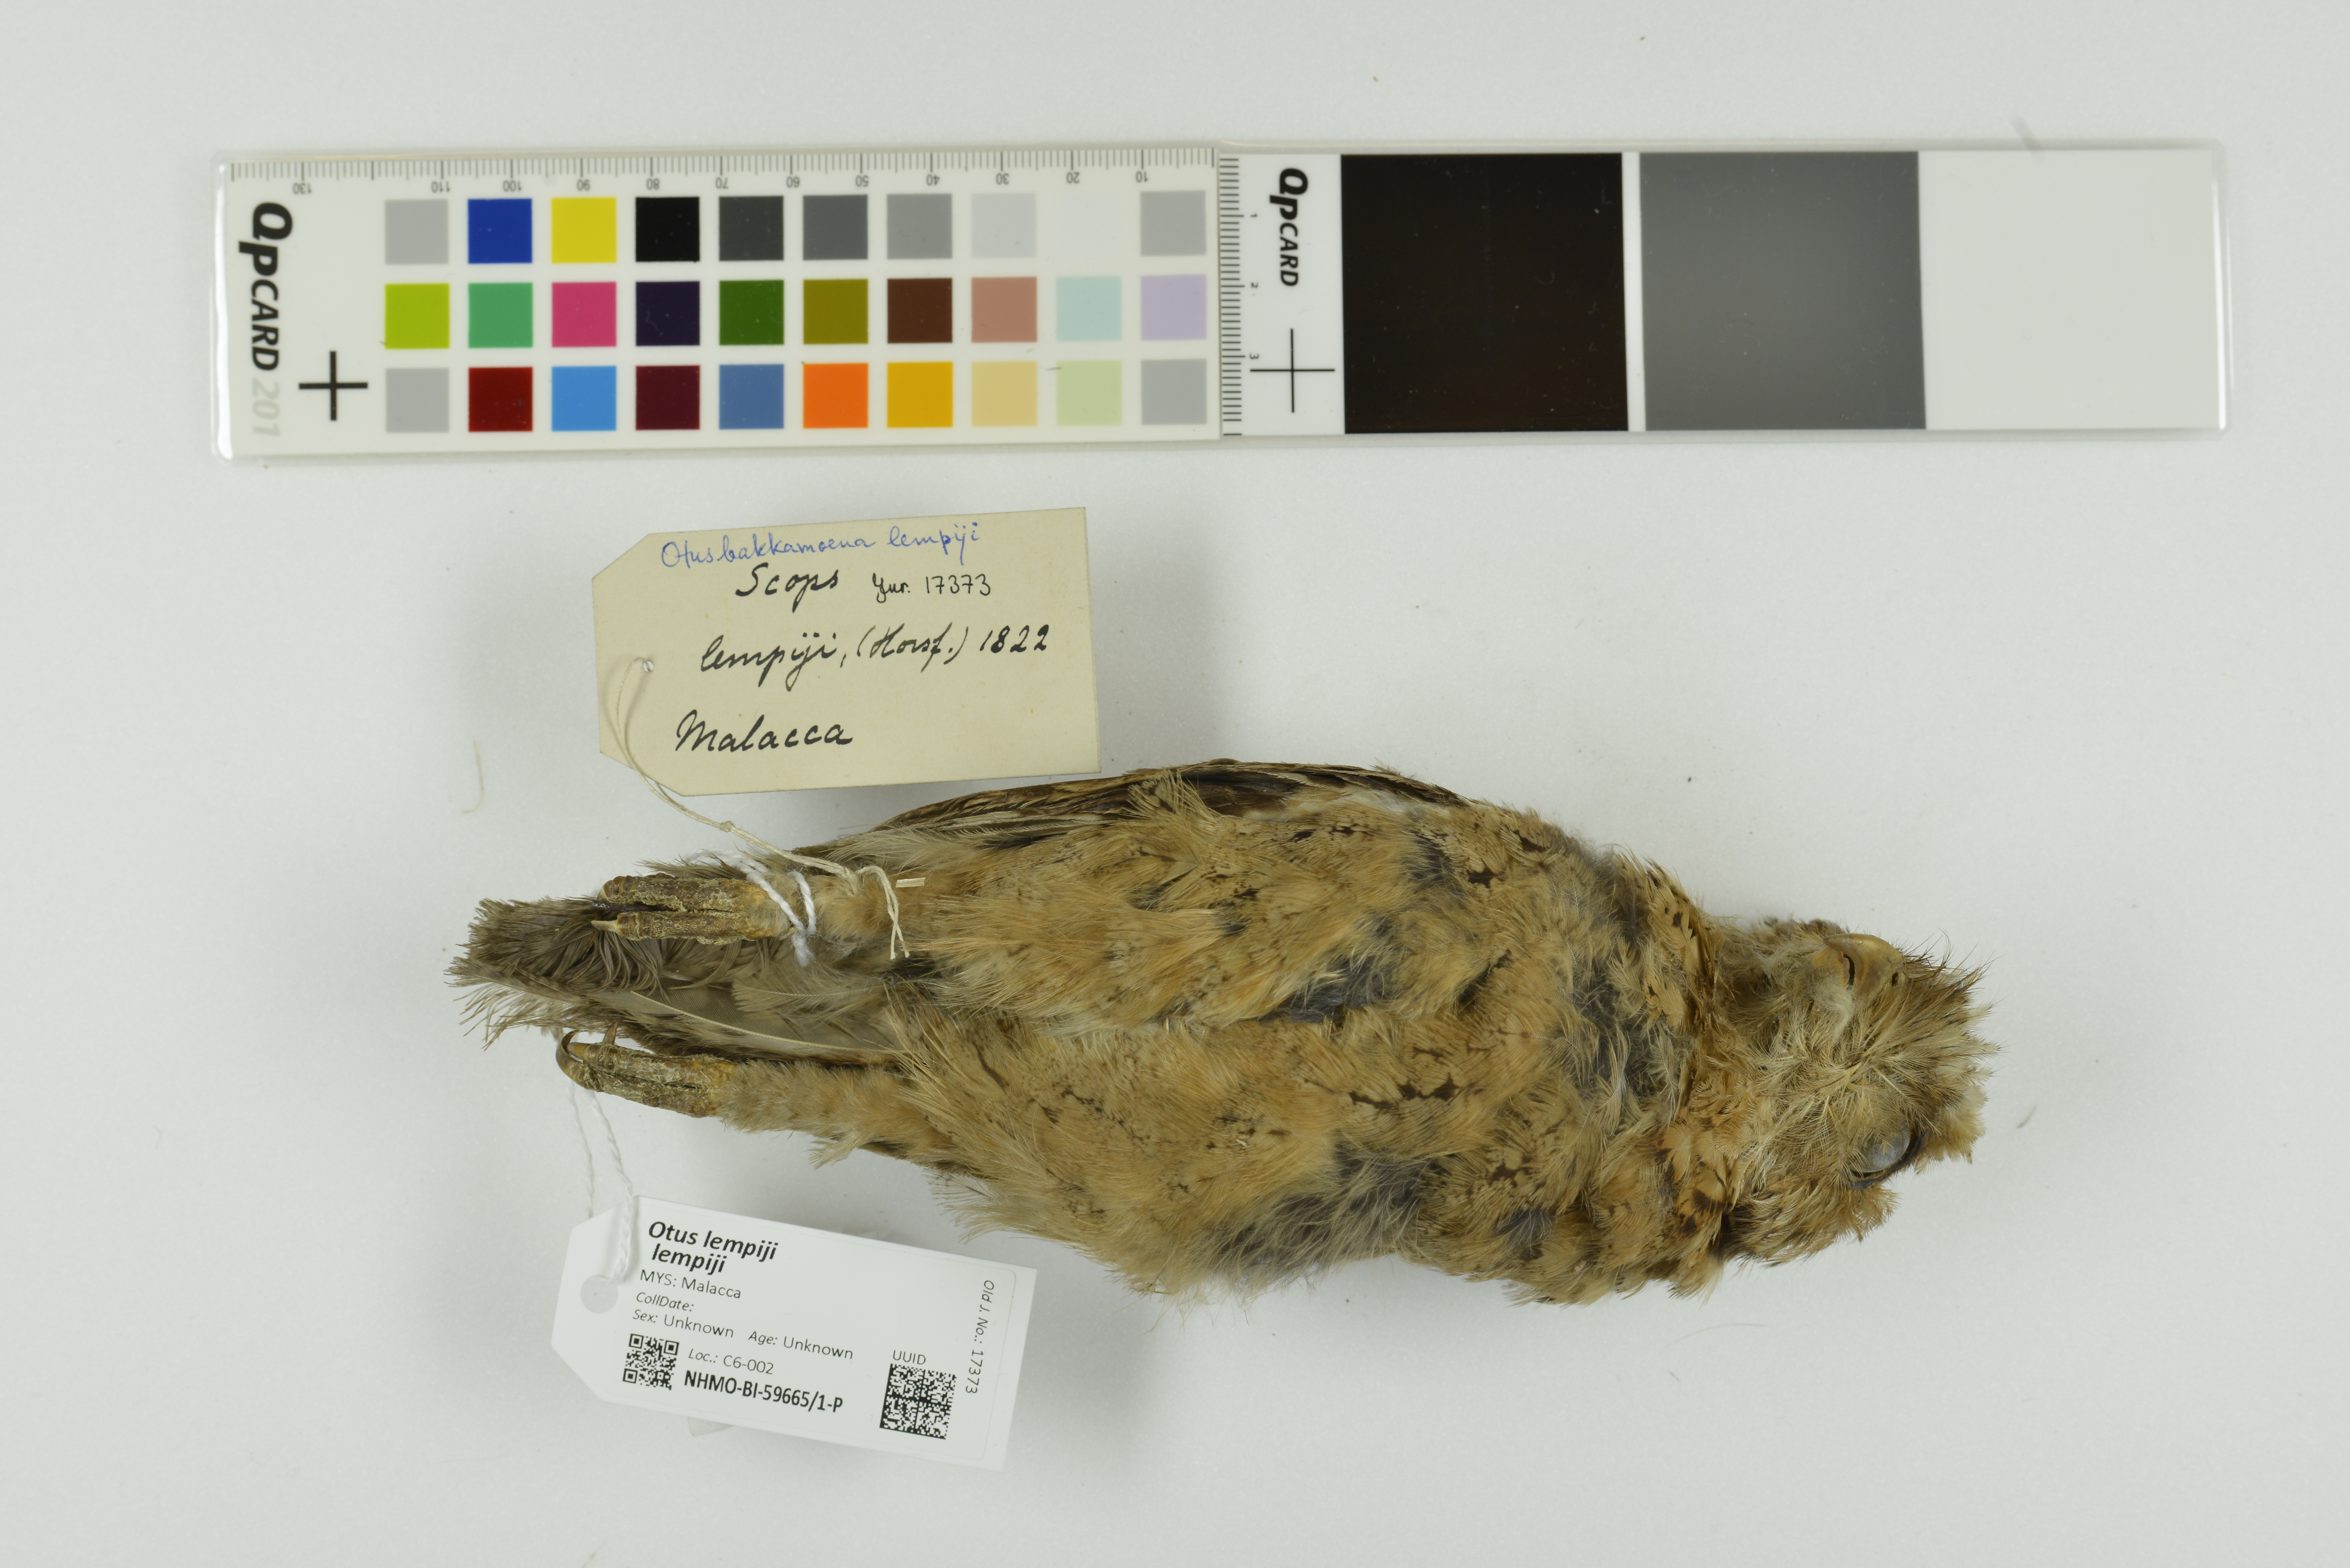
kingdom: Animalia
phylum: Chordata
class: Aves
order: Strigiformes
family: Strigidae
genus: Otus
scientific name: Otus lempiji
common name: Sunda scops-owl
